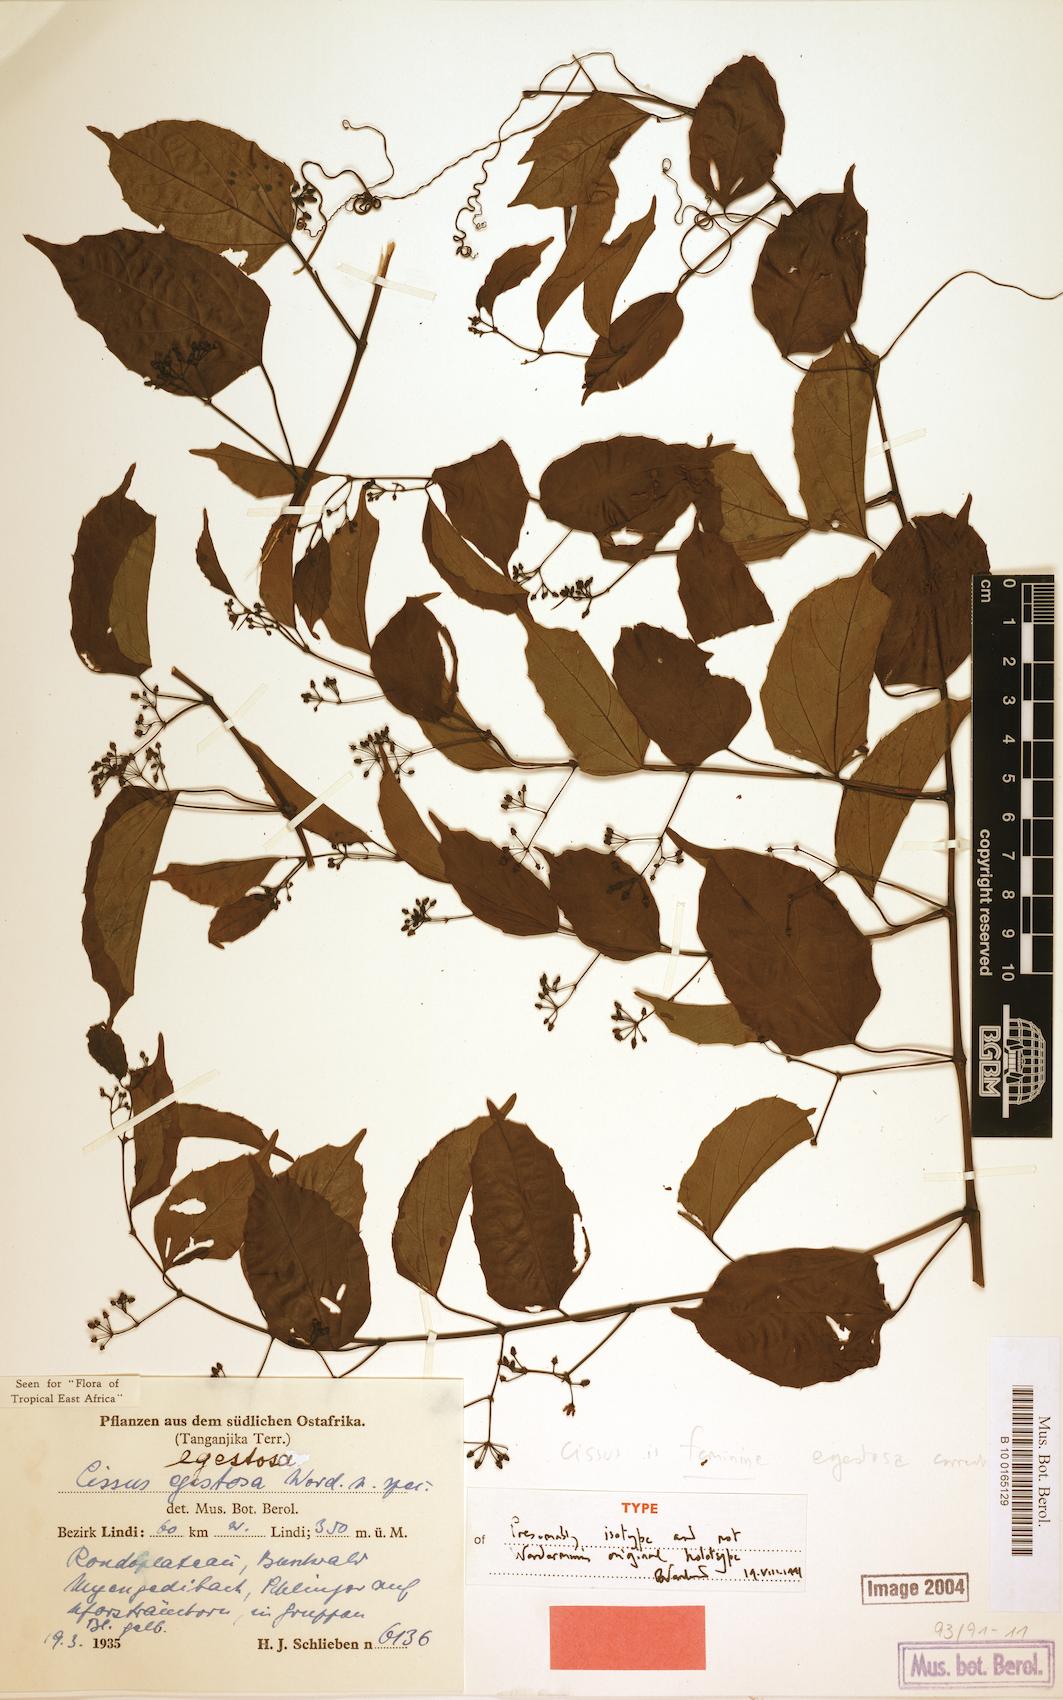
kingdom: Plantae
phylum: Tracheophyta
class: Magnoliopsida
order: Vitales
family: Vitaceae
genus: Cissus
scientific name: Cissus egestosa
